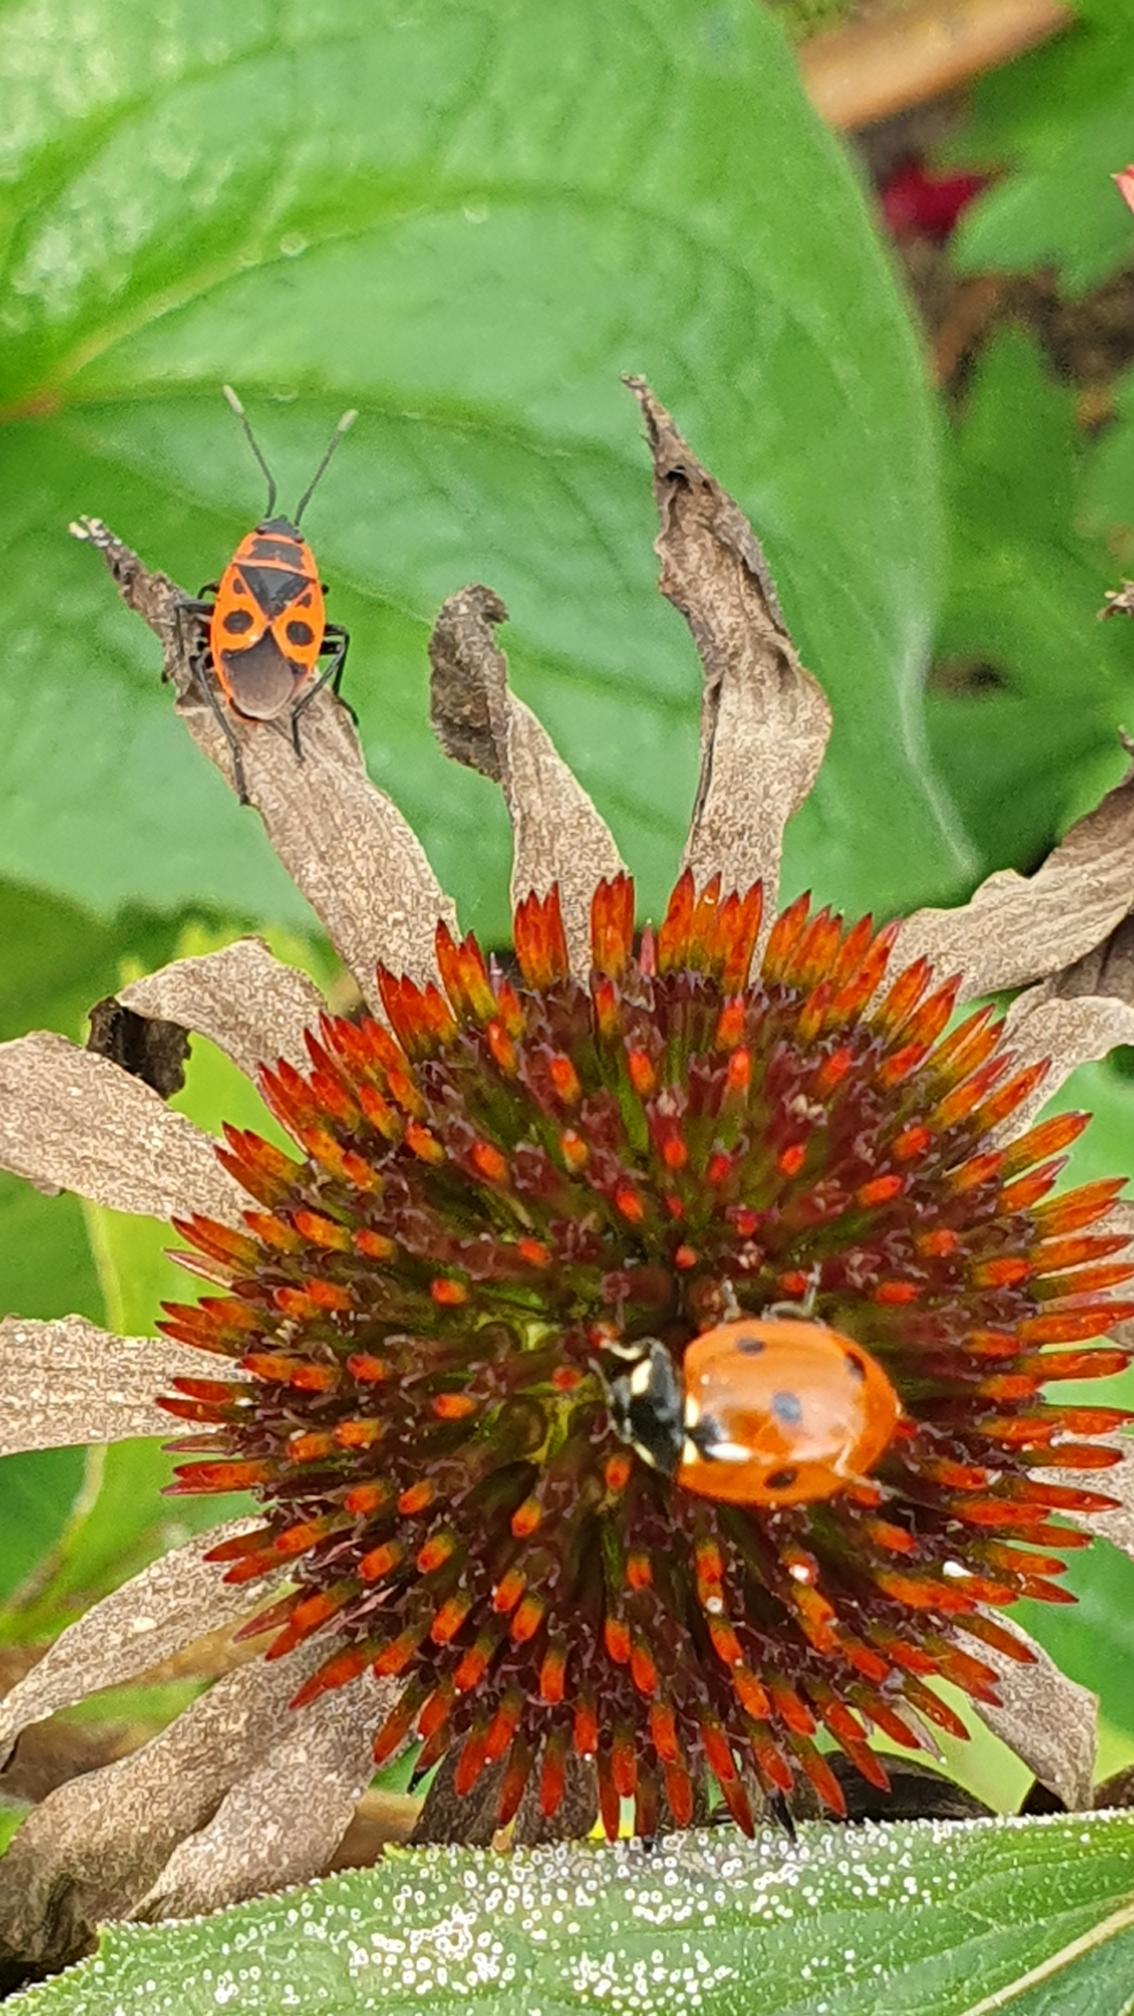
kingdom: Animalia
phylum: Arthropoda
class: Insecta
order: Hemiptera
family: Pyrrhocoridae
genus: Pyrrhocoris
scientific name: Pyrrhocoris apterus
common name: Ildtæge
